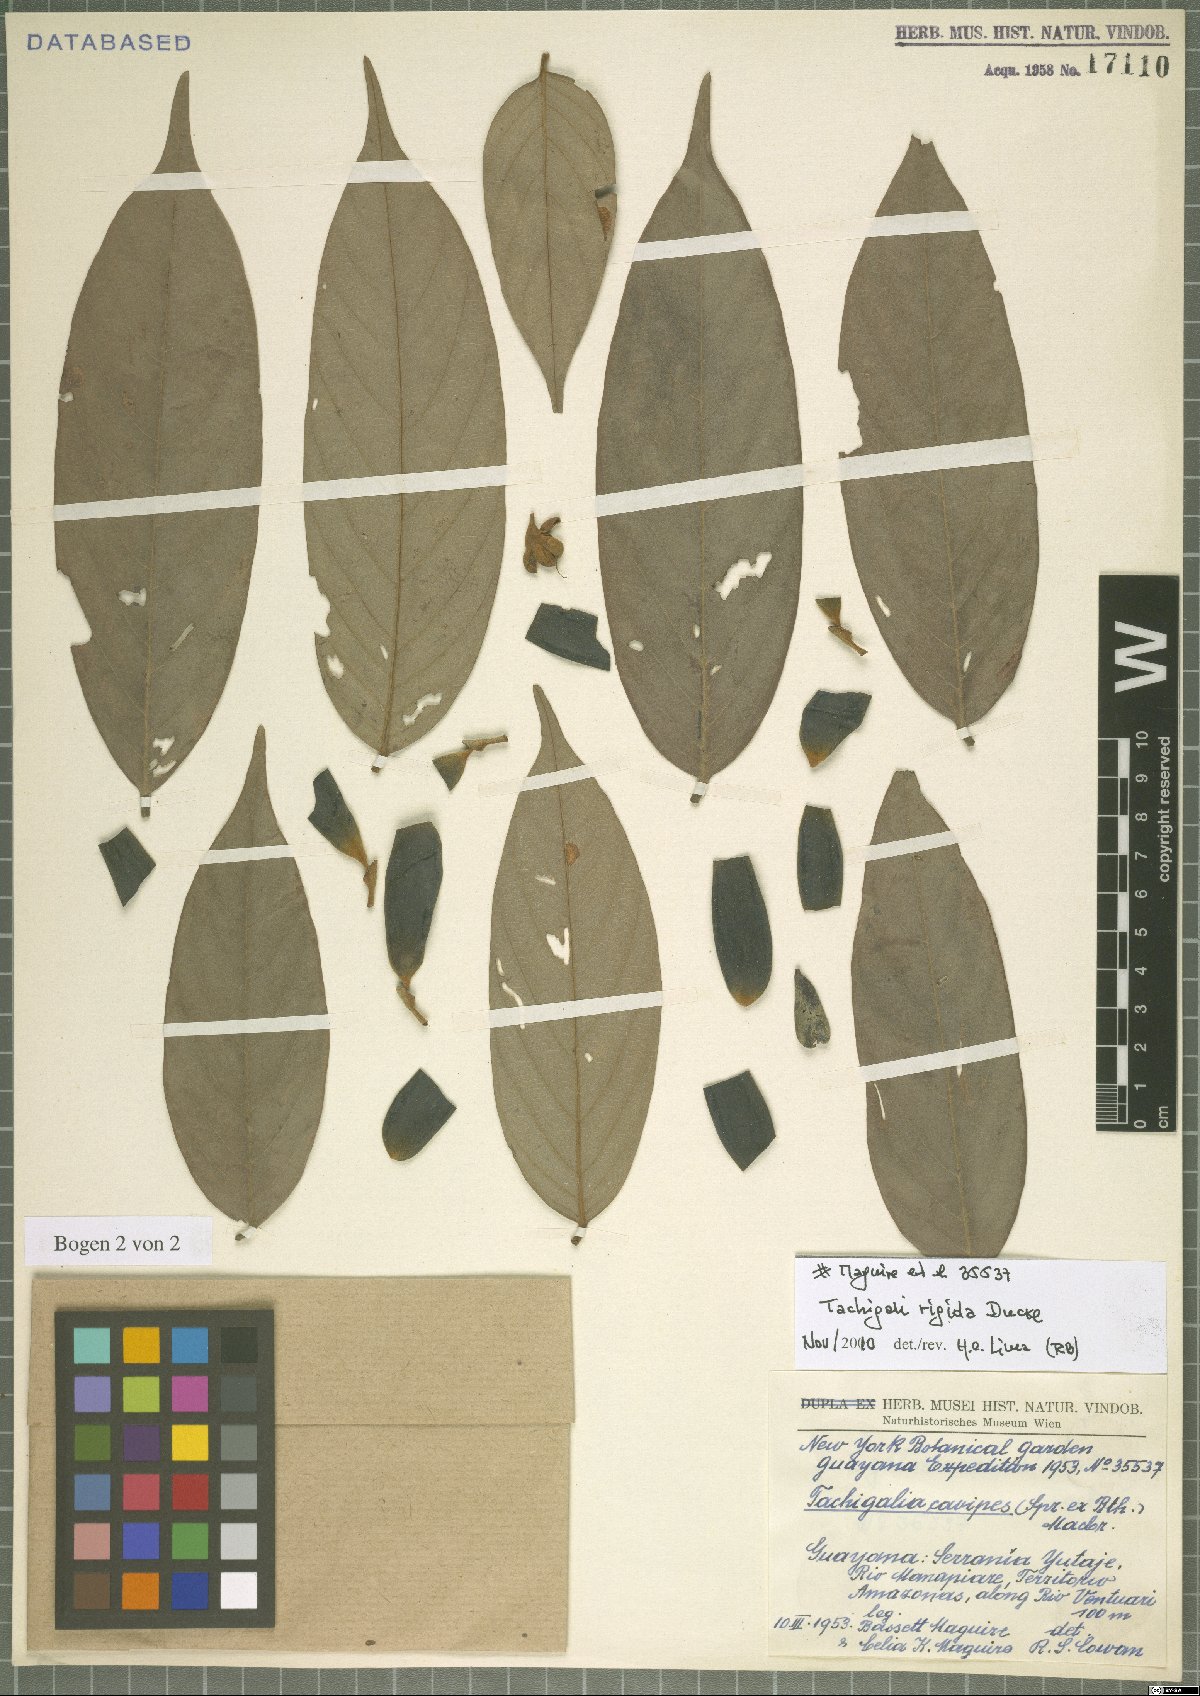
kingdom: Plantae
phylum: Tracheophyta
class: Magnoliopsida
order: Fabales
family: Fabaceae
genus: Tachigali
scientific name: Tachigali rigida
